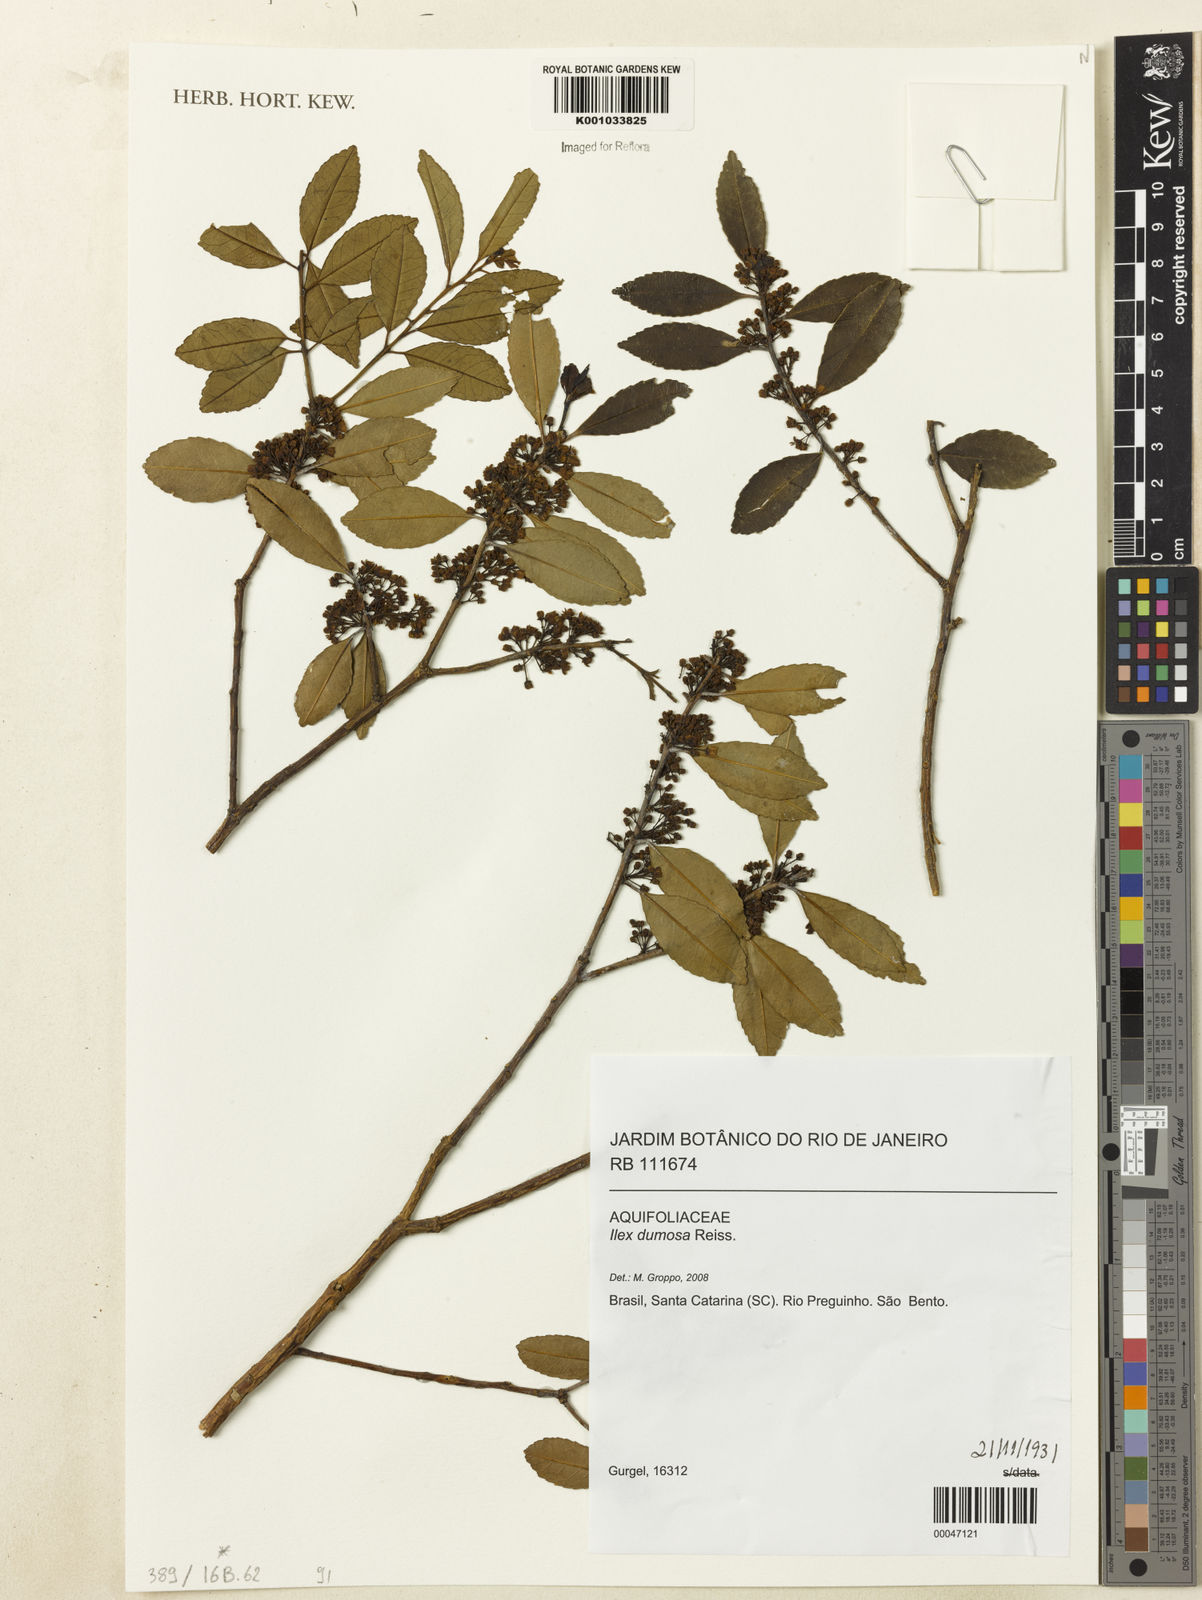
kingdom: Plantae
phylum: Tracheophyta
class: Magnoliopsida
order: Aquifoliales
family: Aquifoliaceae
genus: Ilex
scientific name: Ilex dumosa
